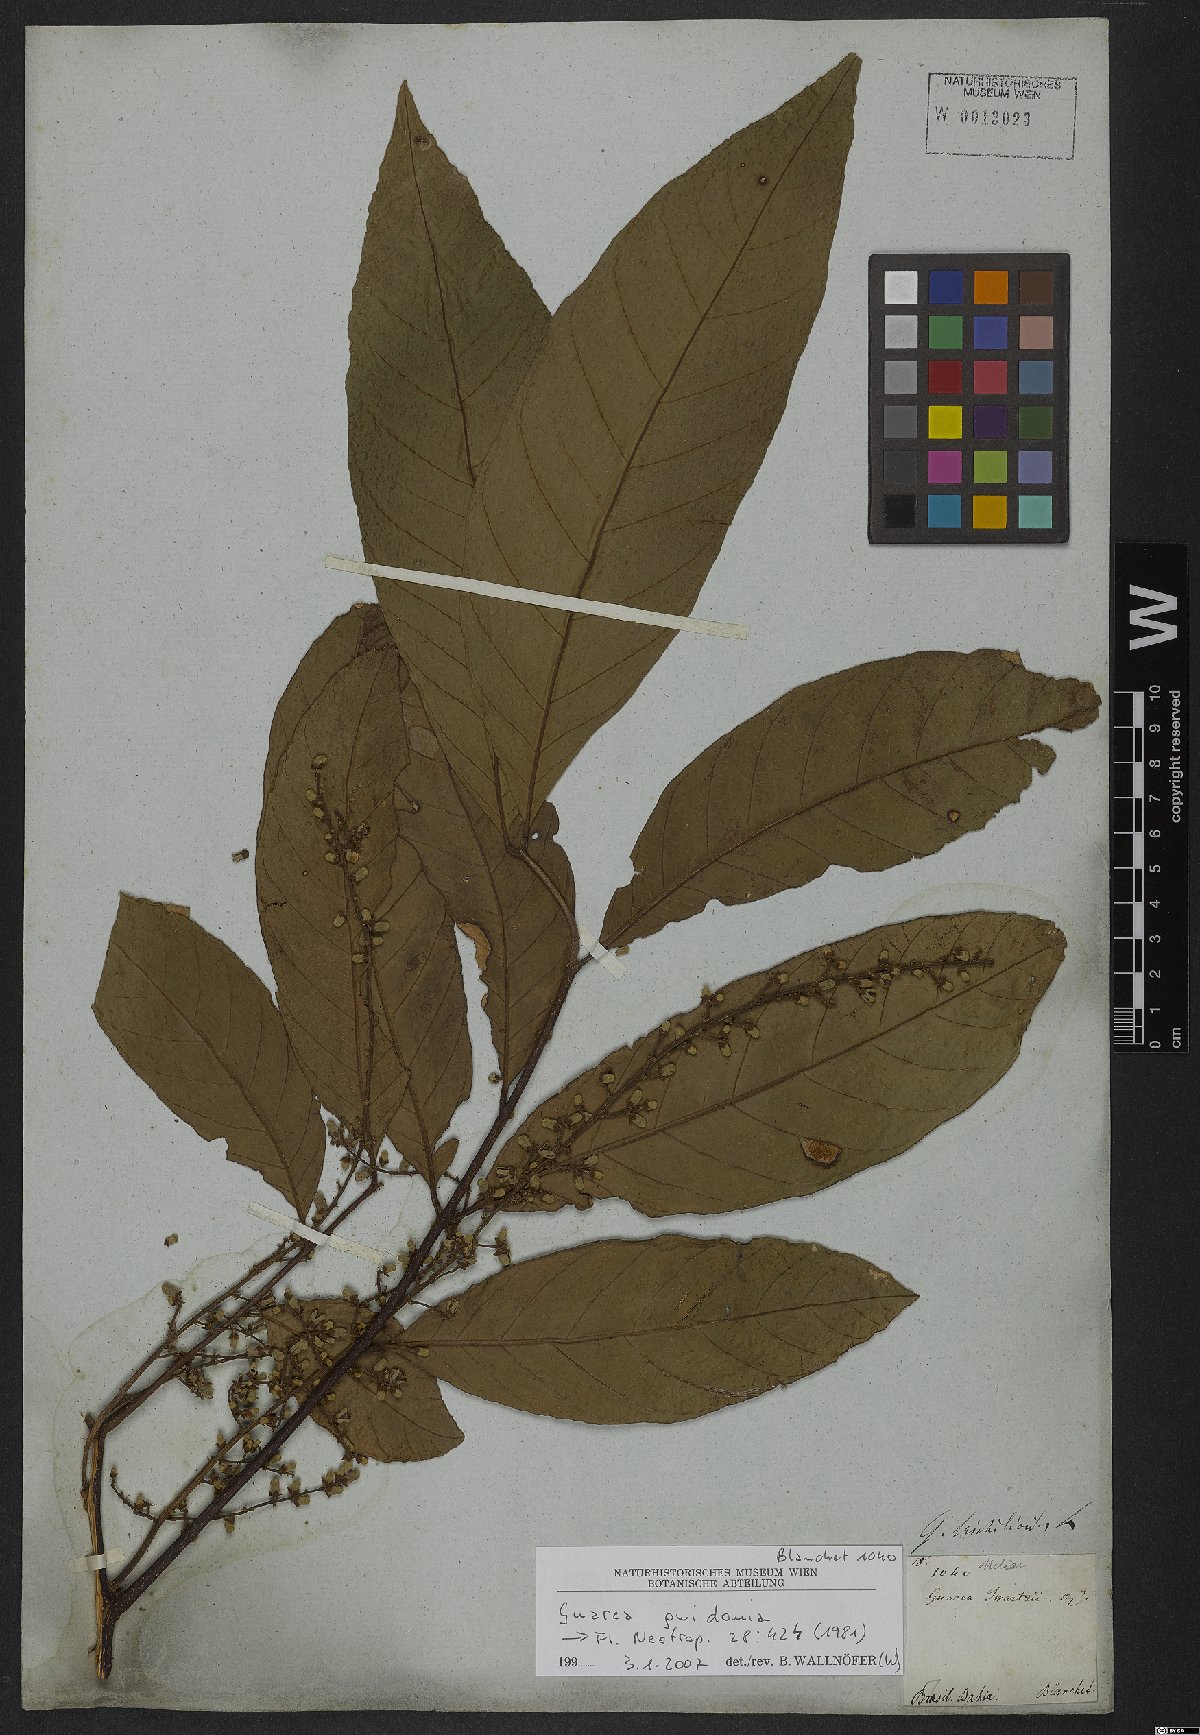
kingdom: Plantae
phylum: Tracheophyta
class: Magnoliopsida
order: Sapindales
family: Meliaceae
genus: Guarea
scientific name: Guarea guidonia
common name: American muskwood
